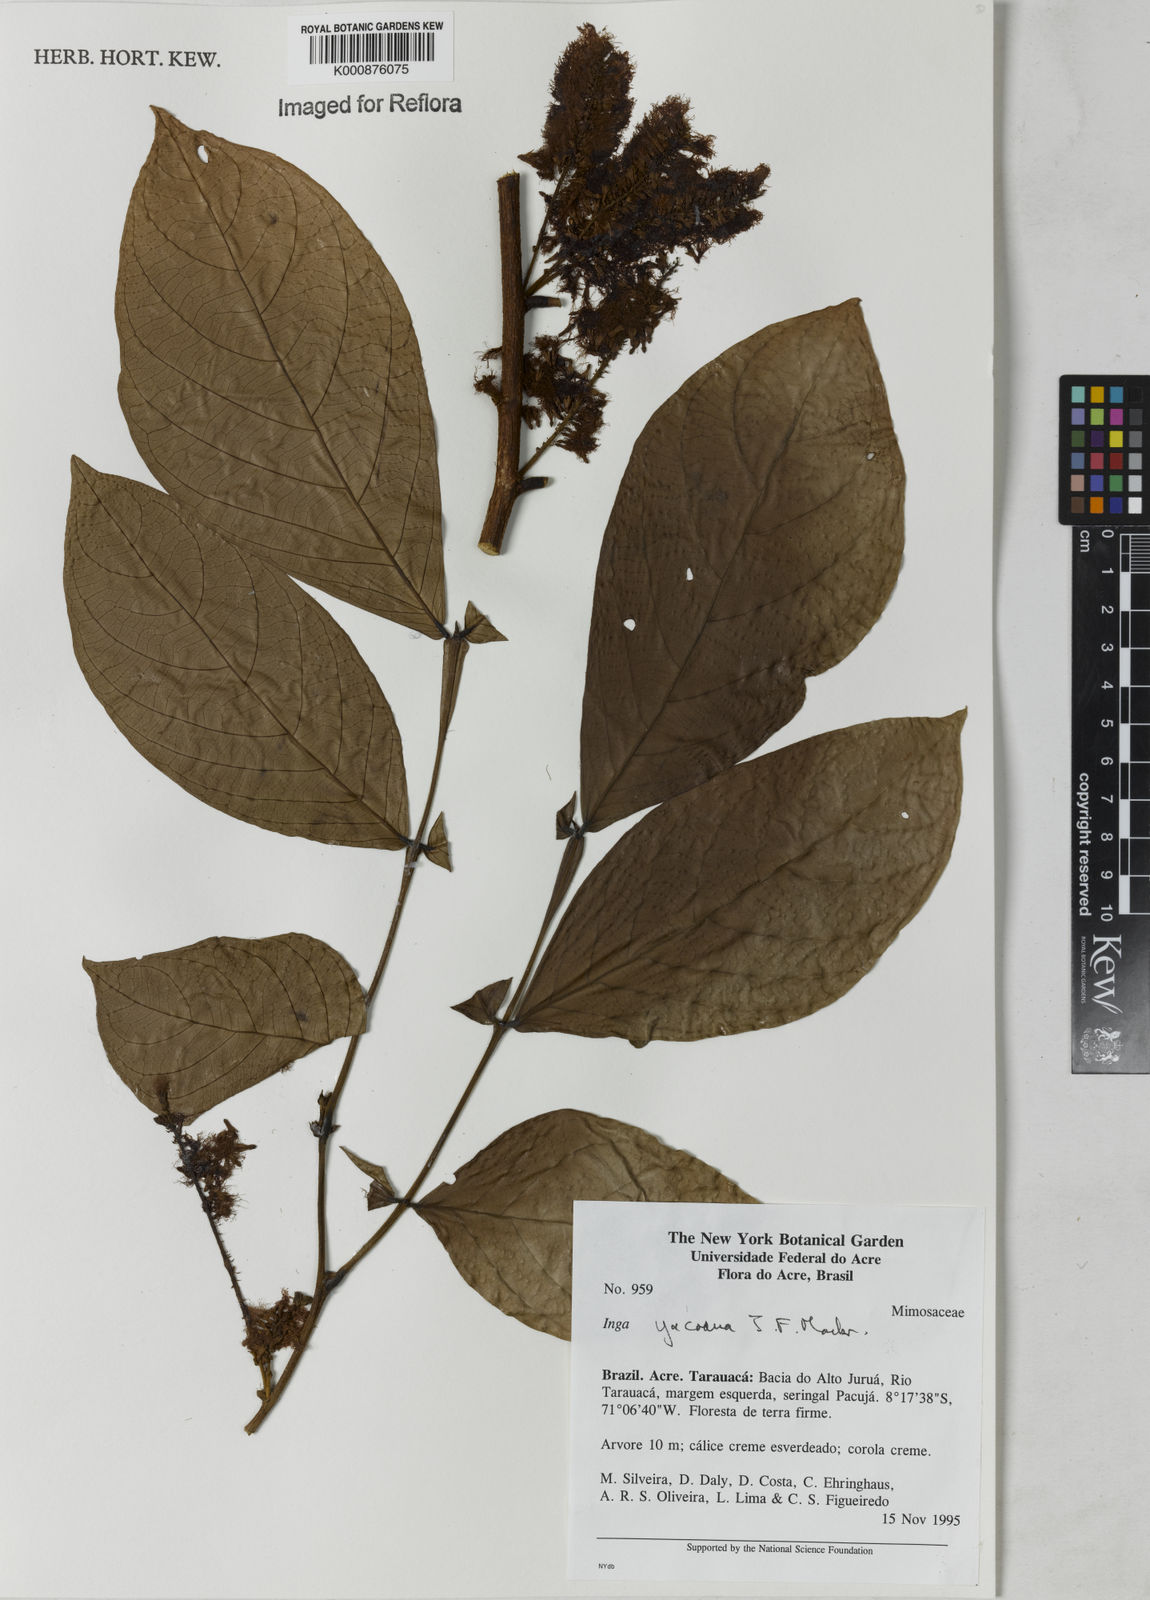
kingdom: Plantae
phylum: Tracheophyta
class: Magnoliopsida
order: Fabales
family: Fabaceae
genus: Inga
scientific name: Inga yacoana
